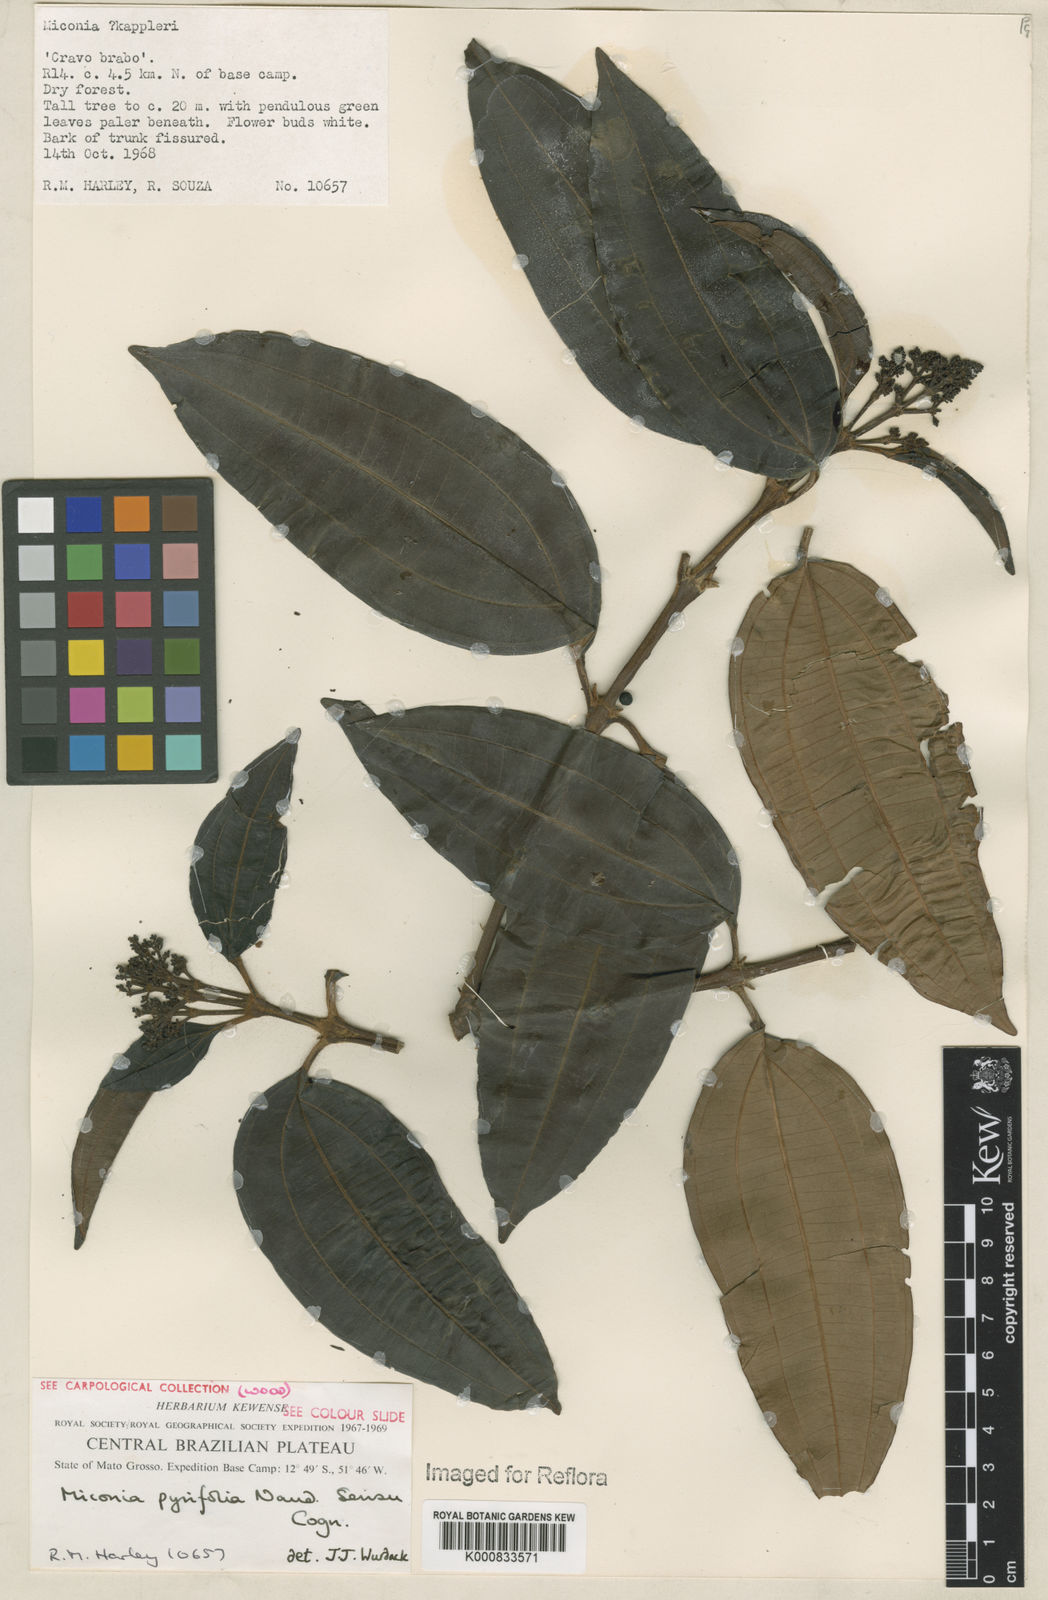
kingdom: Plantae
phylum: Tracheophyta
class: Magnoliopsida
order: Myrtales
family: Melastomataceae
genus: Miconia
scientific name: Miconia pyrifolia
